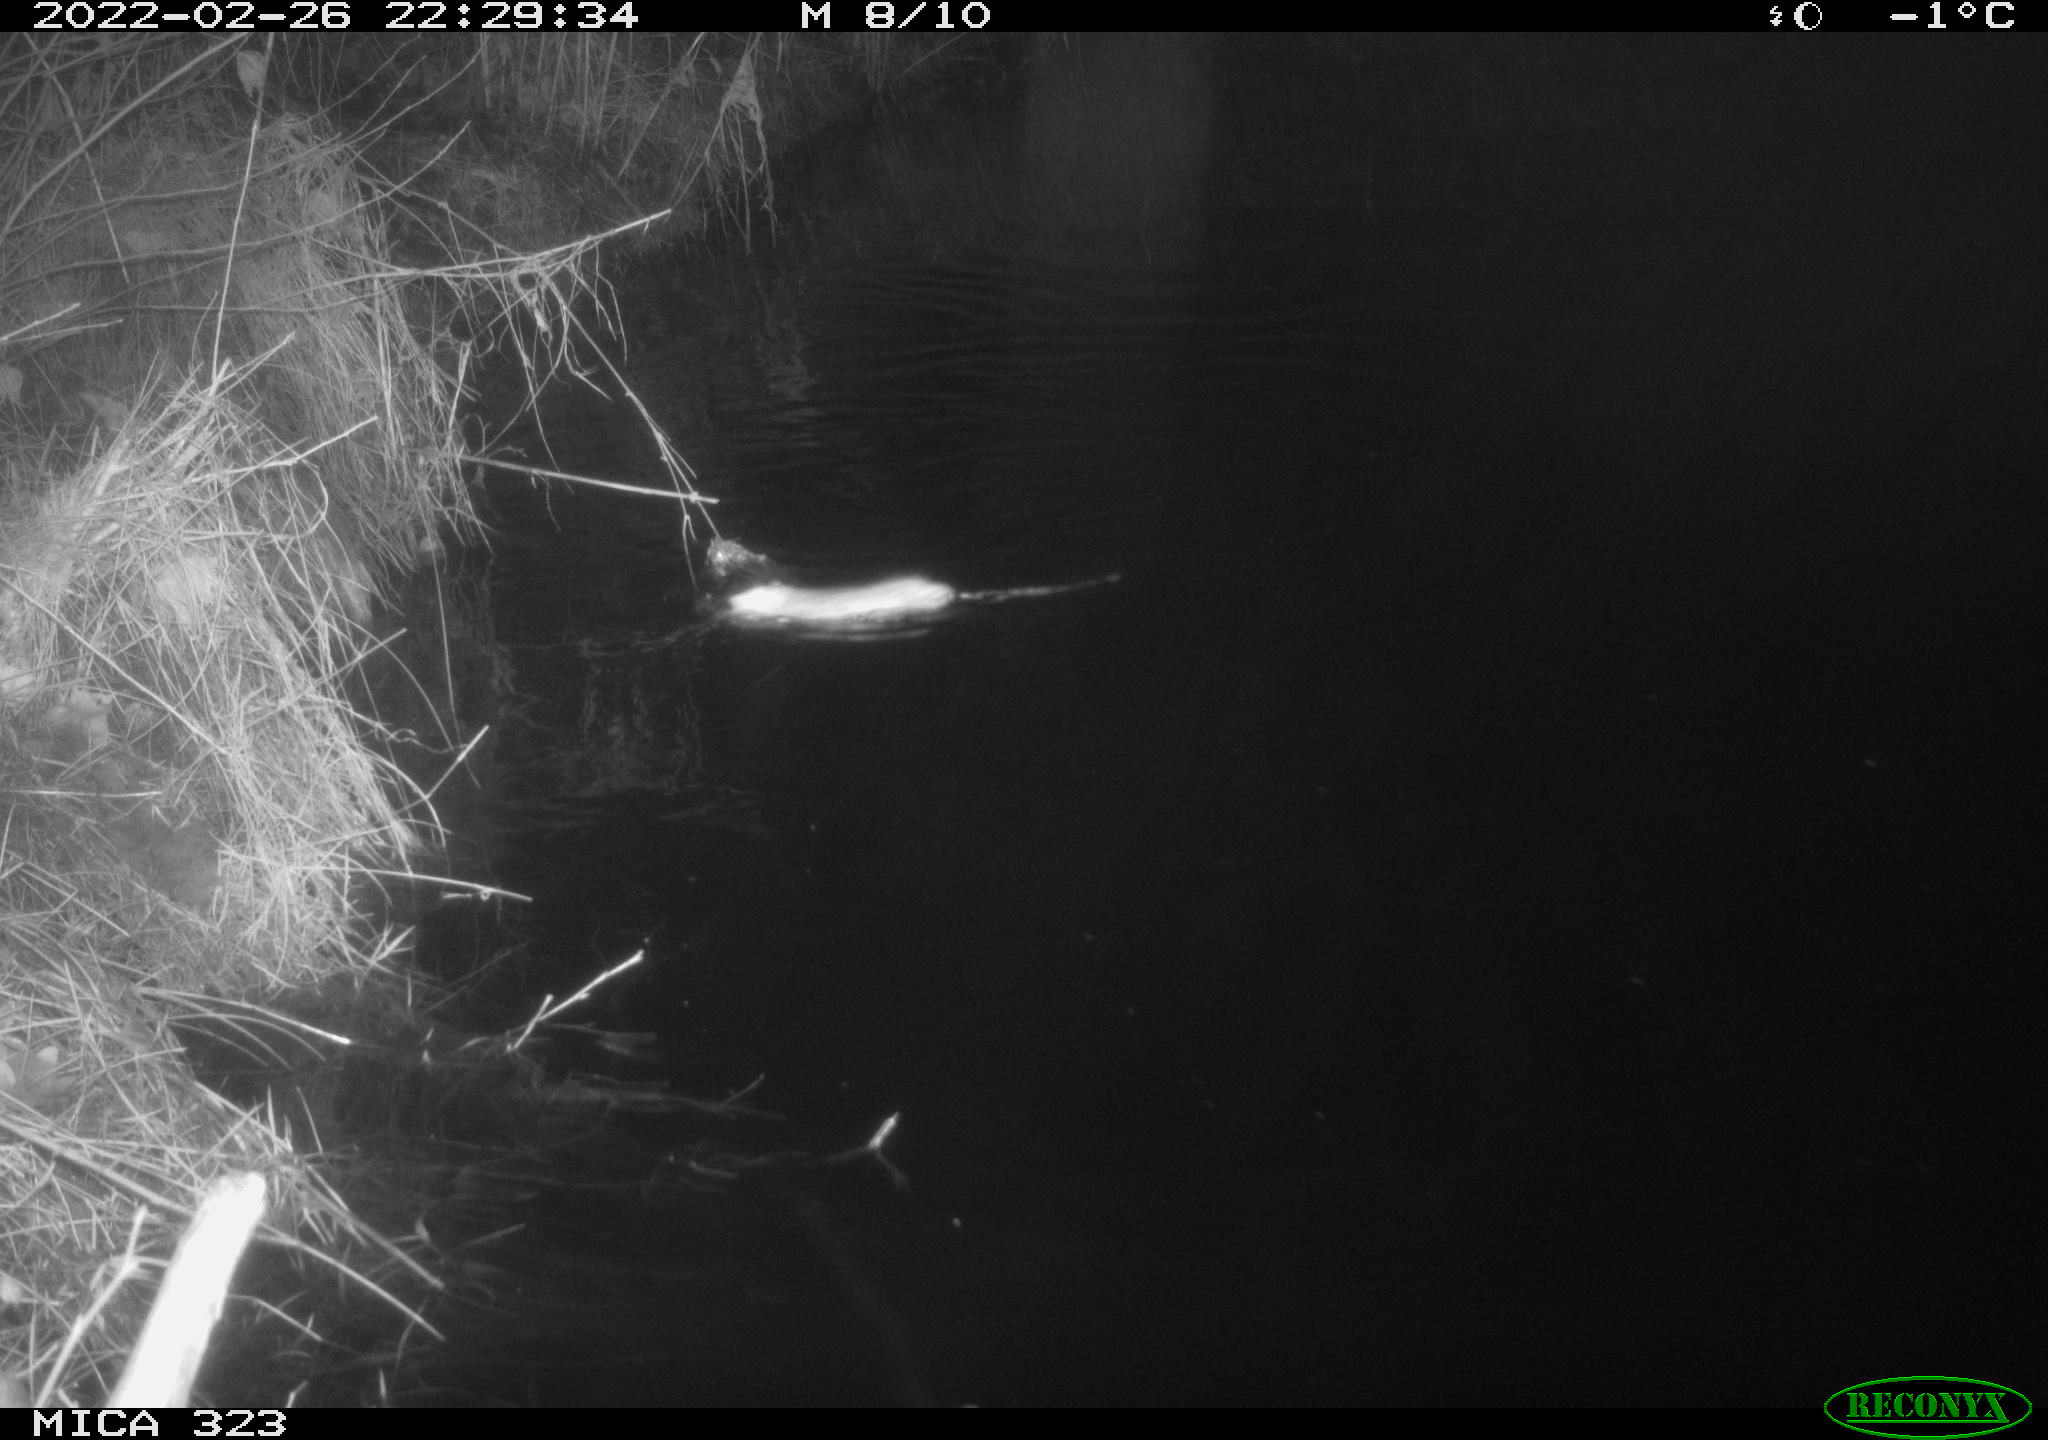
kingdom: Animalia
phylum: Chordata
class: Mammalia
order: Rodentia
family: Muridae
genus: Rattus
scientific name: Rattus norvegicus
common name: Brown rat
